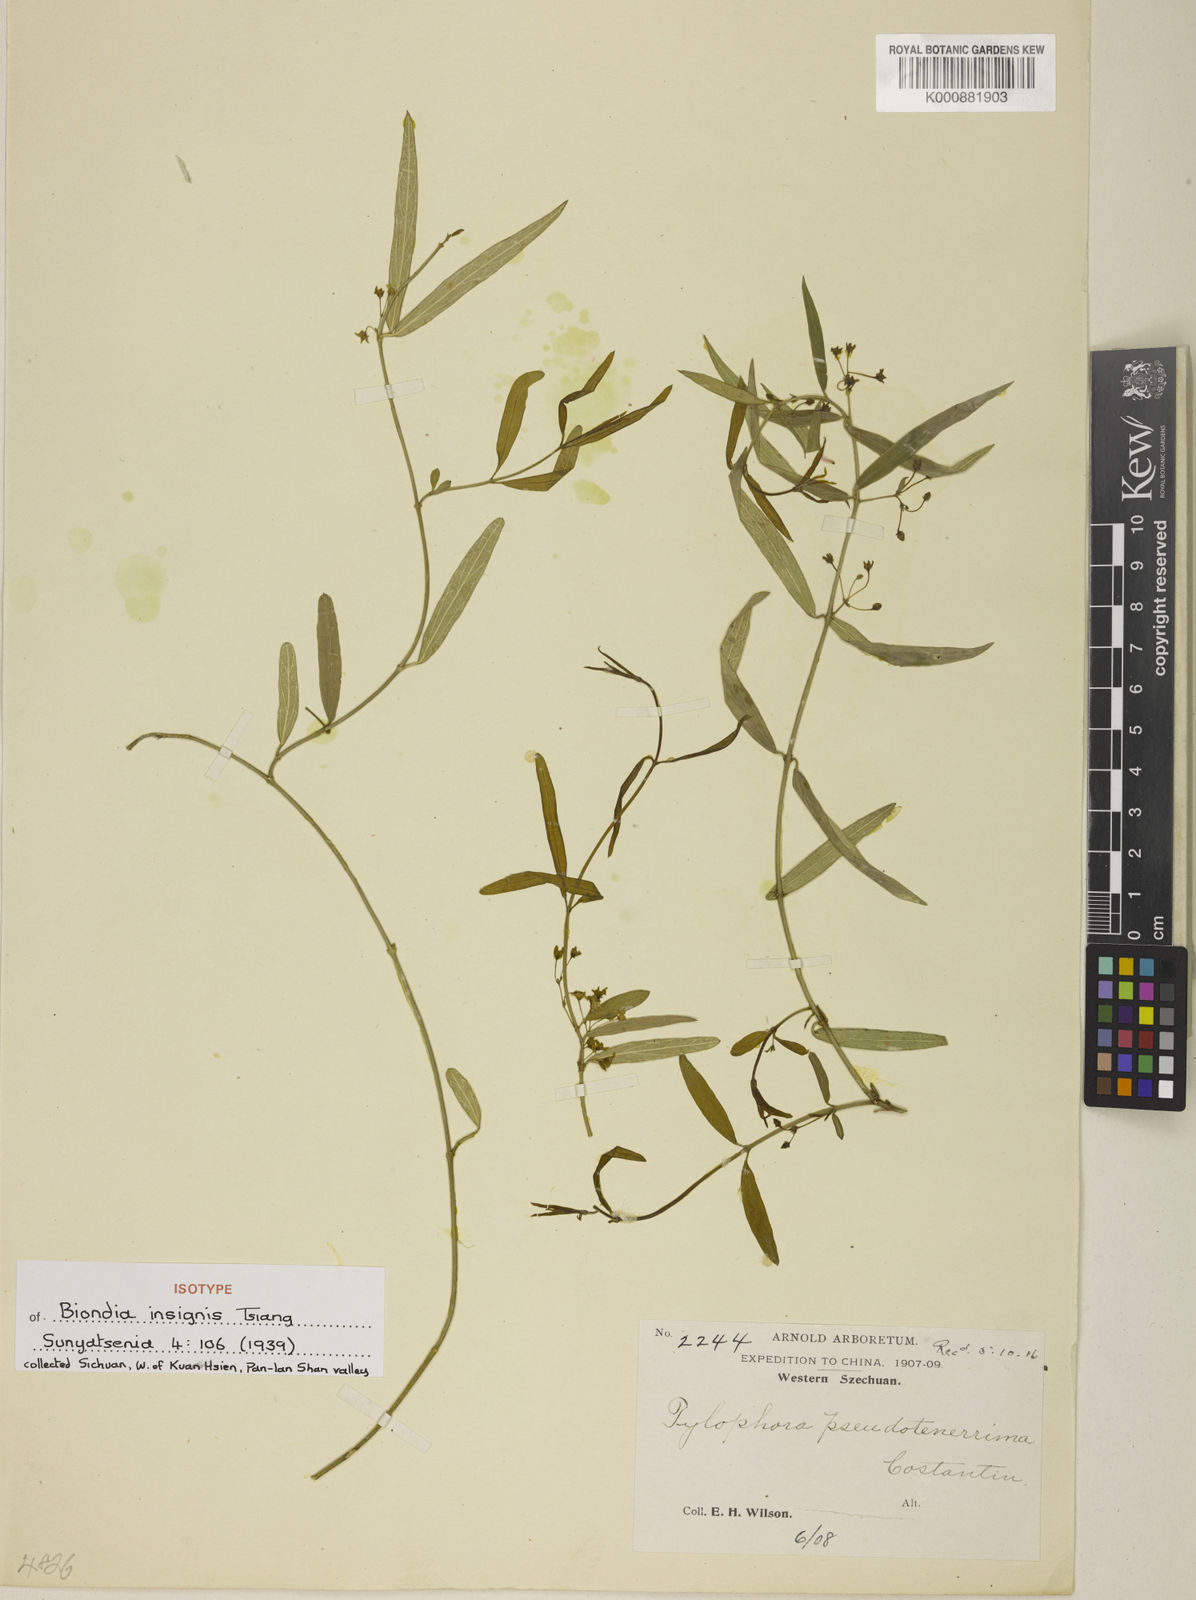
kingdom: Plantae
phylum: Tracheophyta
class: Magnoliopsida
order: Gentianales
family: Apocynaceae
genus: Vincetoxicum
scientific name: Vincetoxicum insigne
